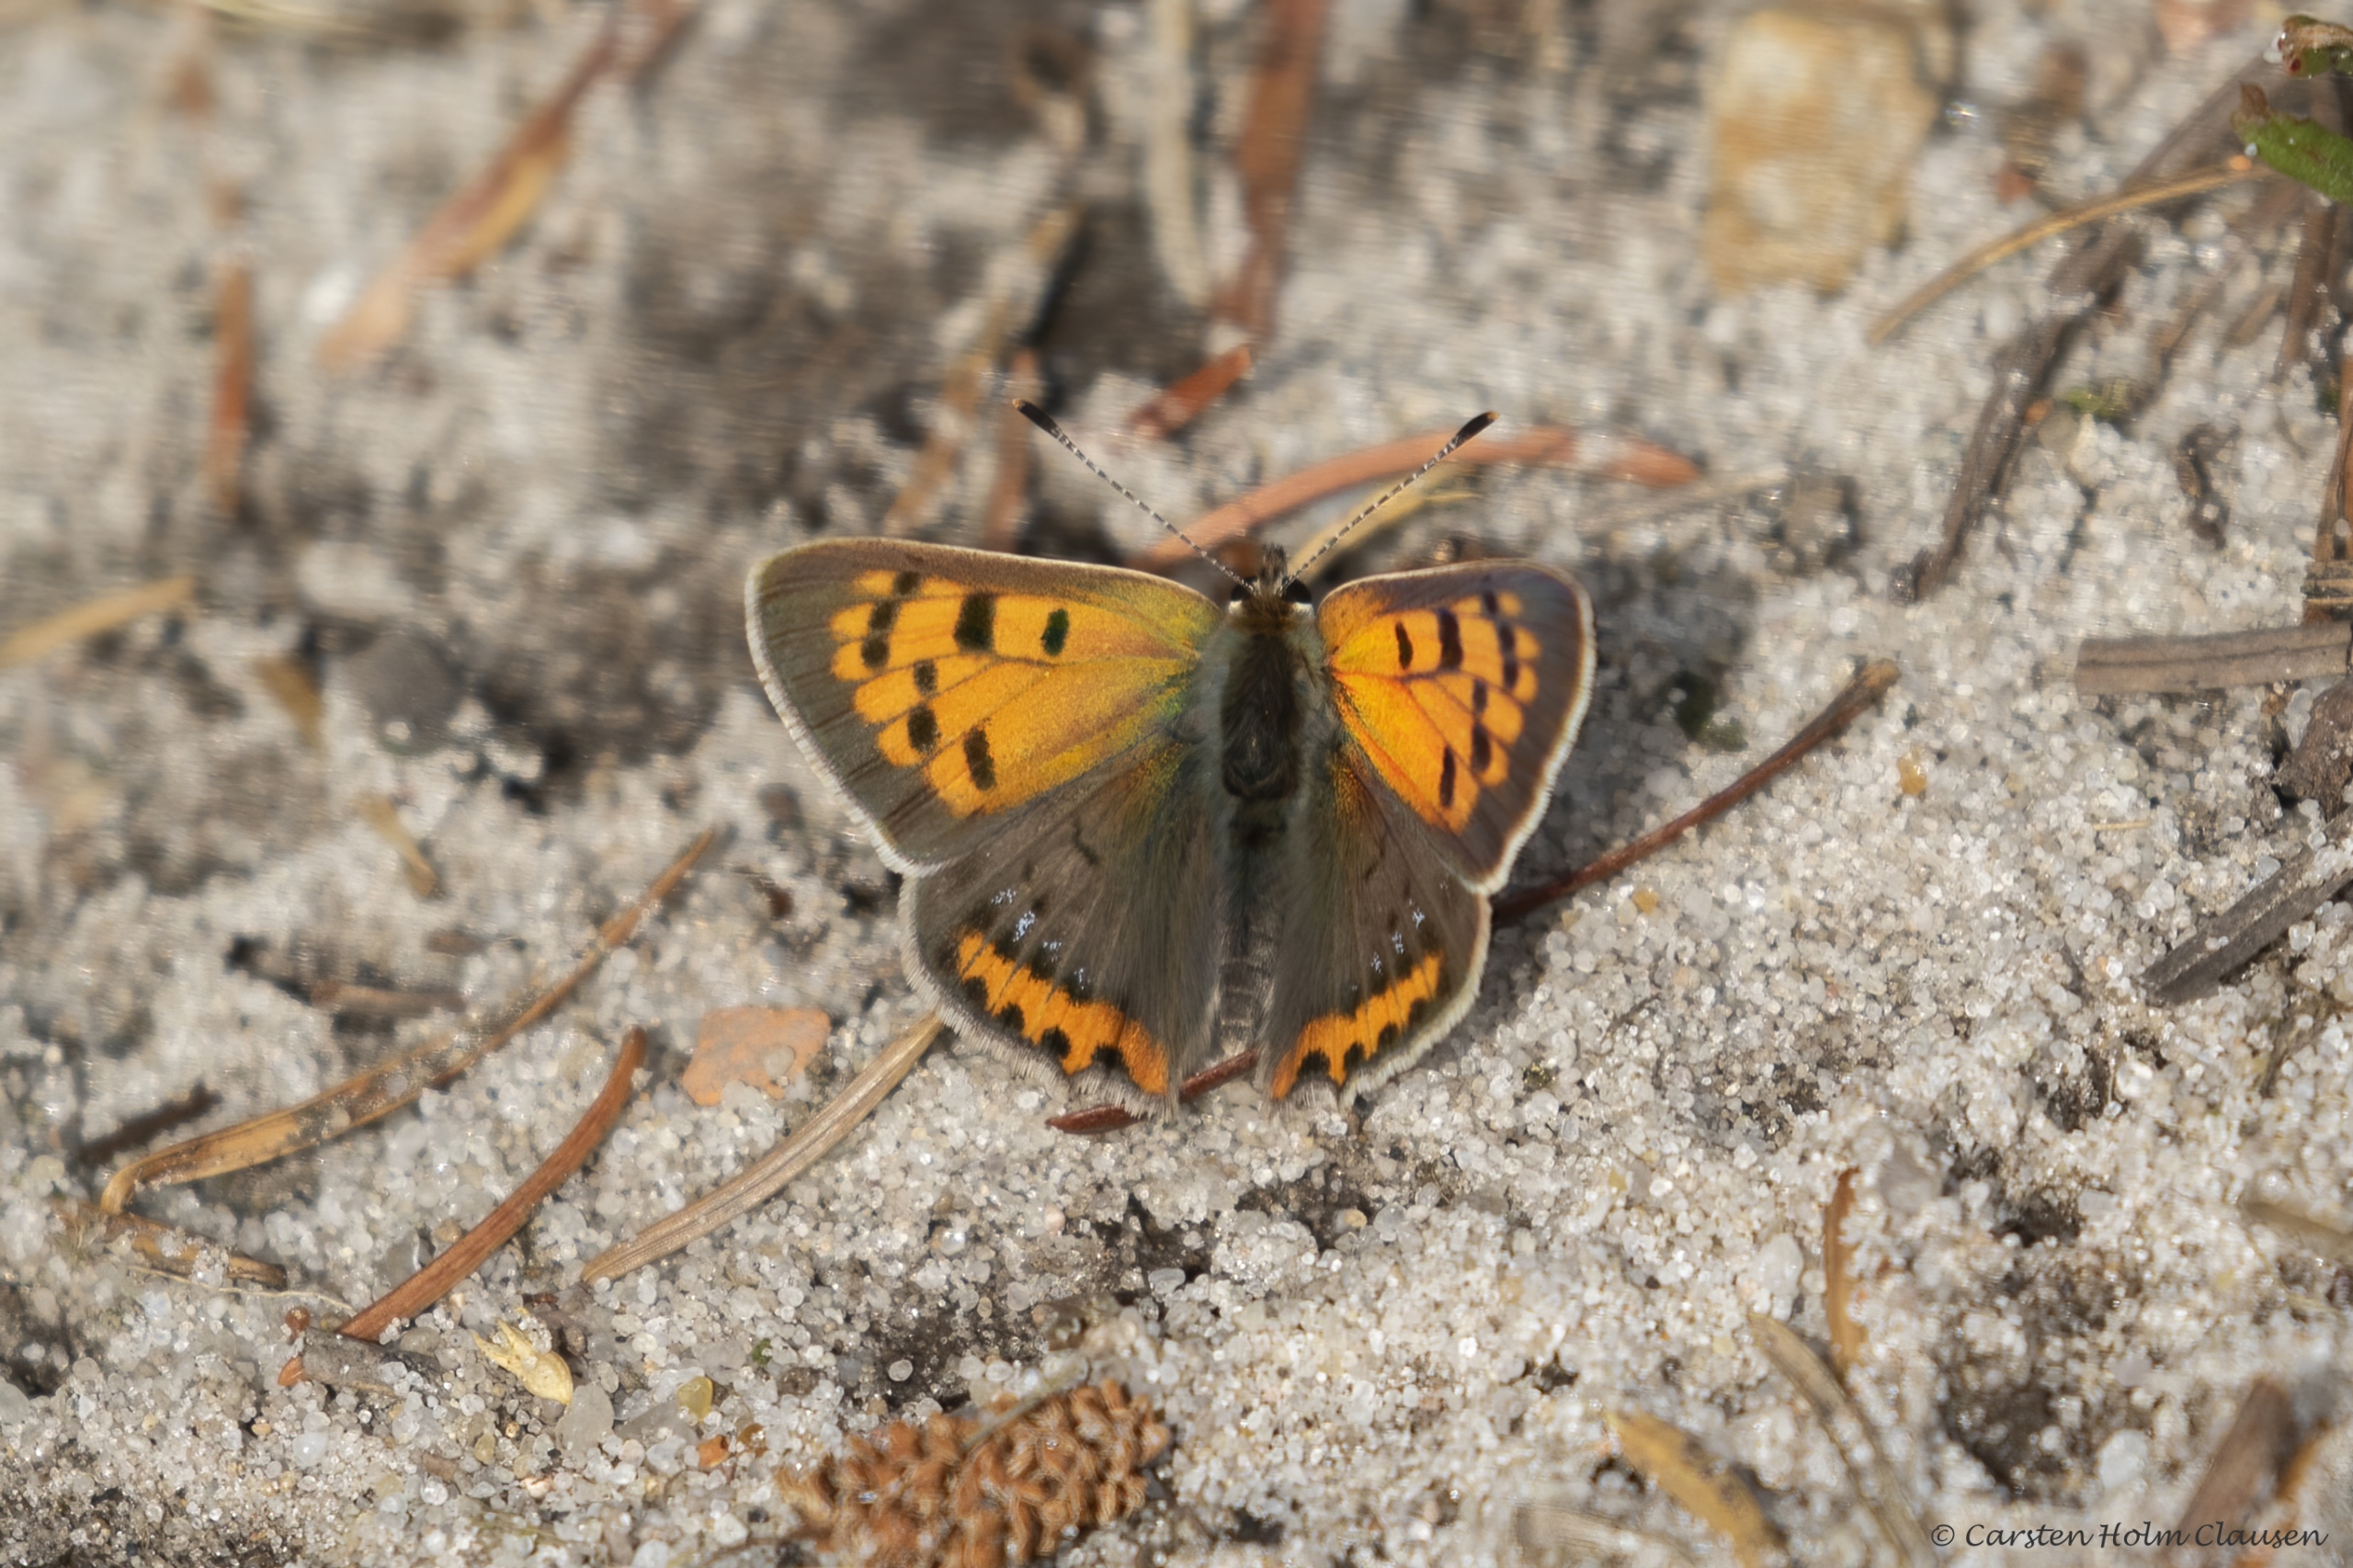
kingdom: Animalia
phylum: Arthropoda
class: Insecta
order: Lepidoptera
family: Lycaenidae
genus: Lycaena
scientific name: Lycaena phlaeas
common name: Lille ildfugl
